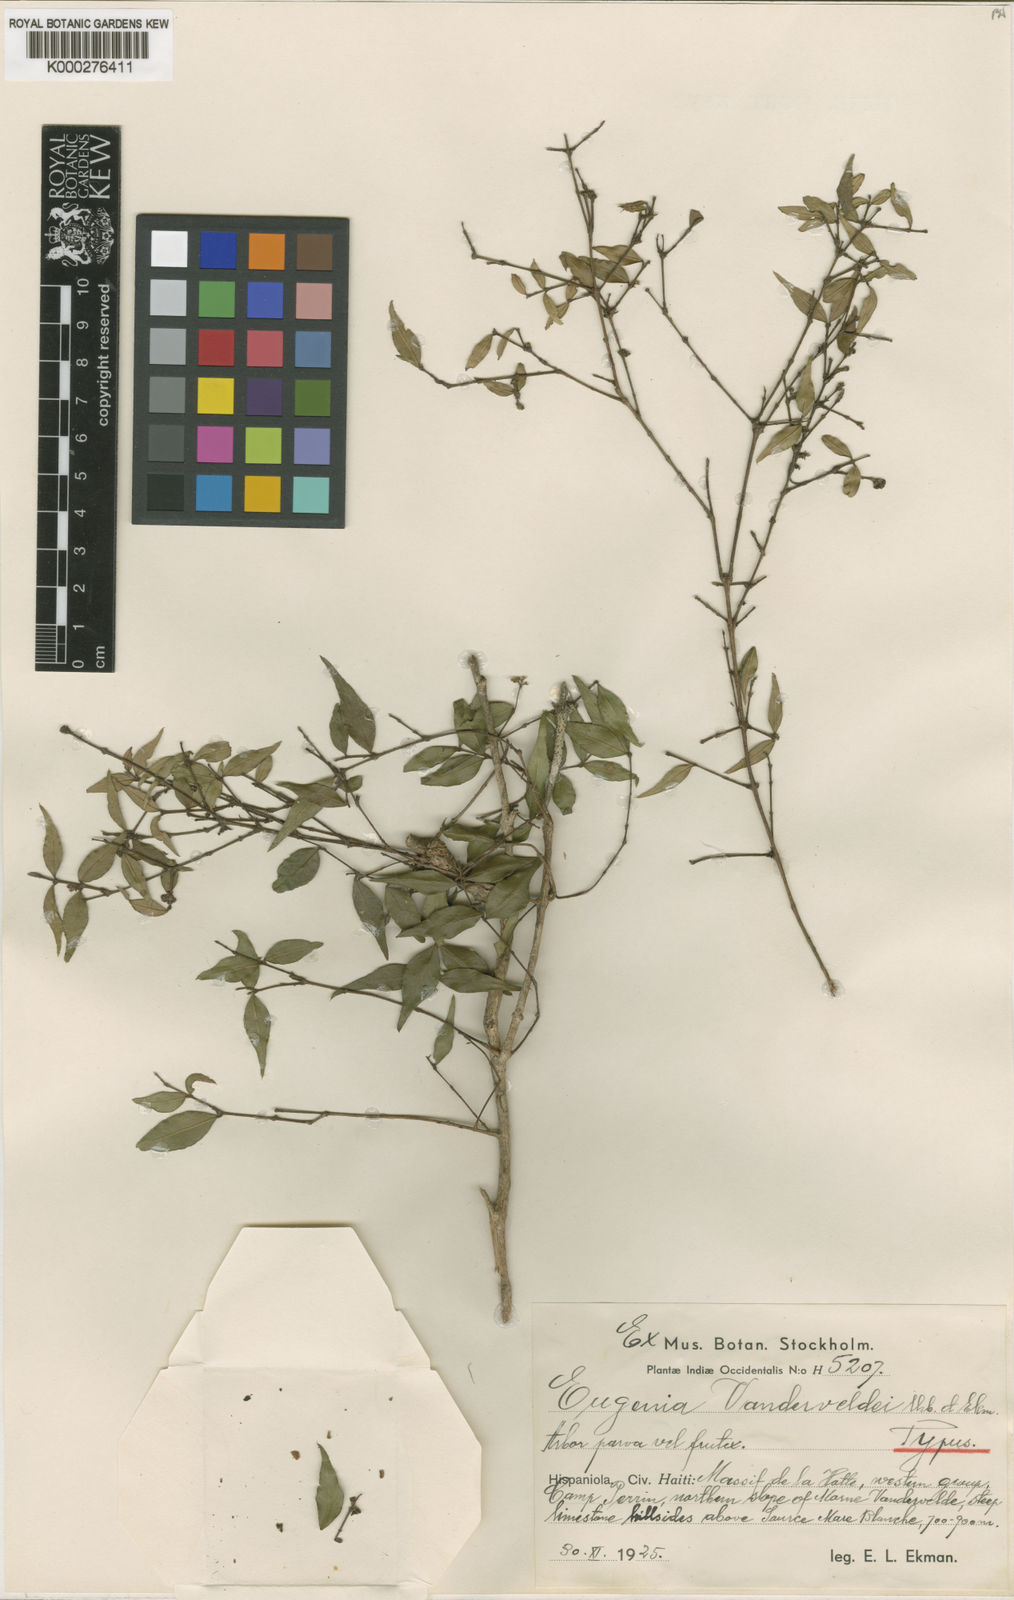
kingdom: Plantae
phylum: Tracheophyta
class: Magnoliopsida
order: Myrtales
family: Myrtaceae
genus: Eugenia
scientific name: Eugenia vanderveldei
